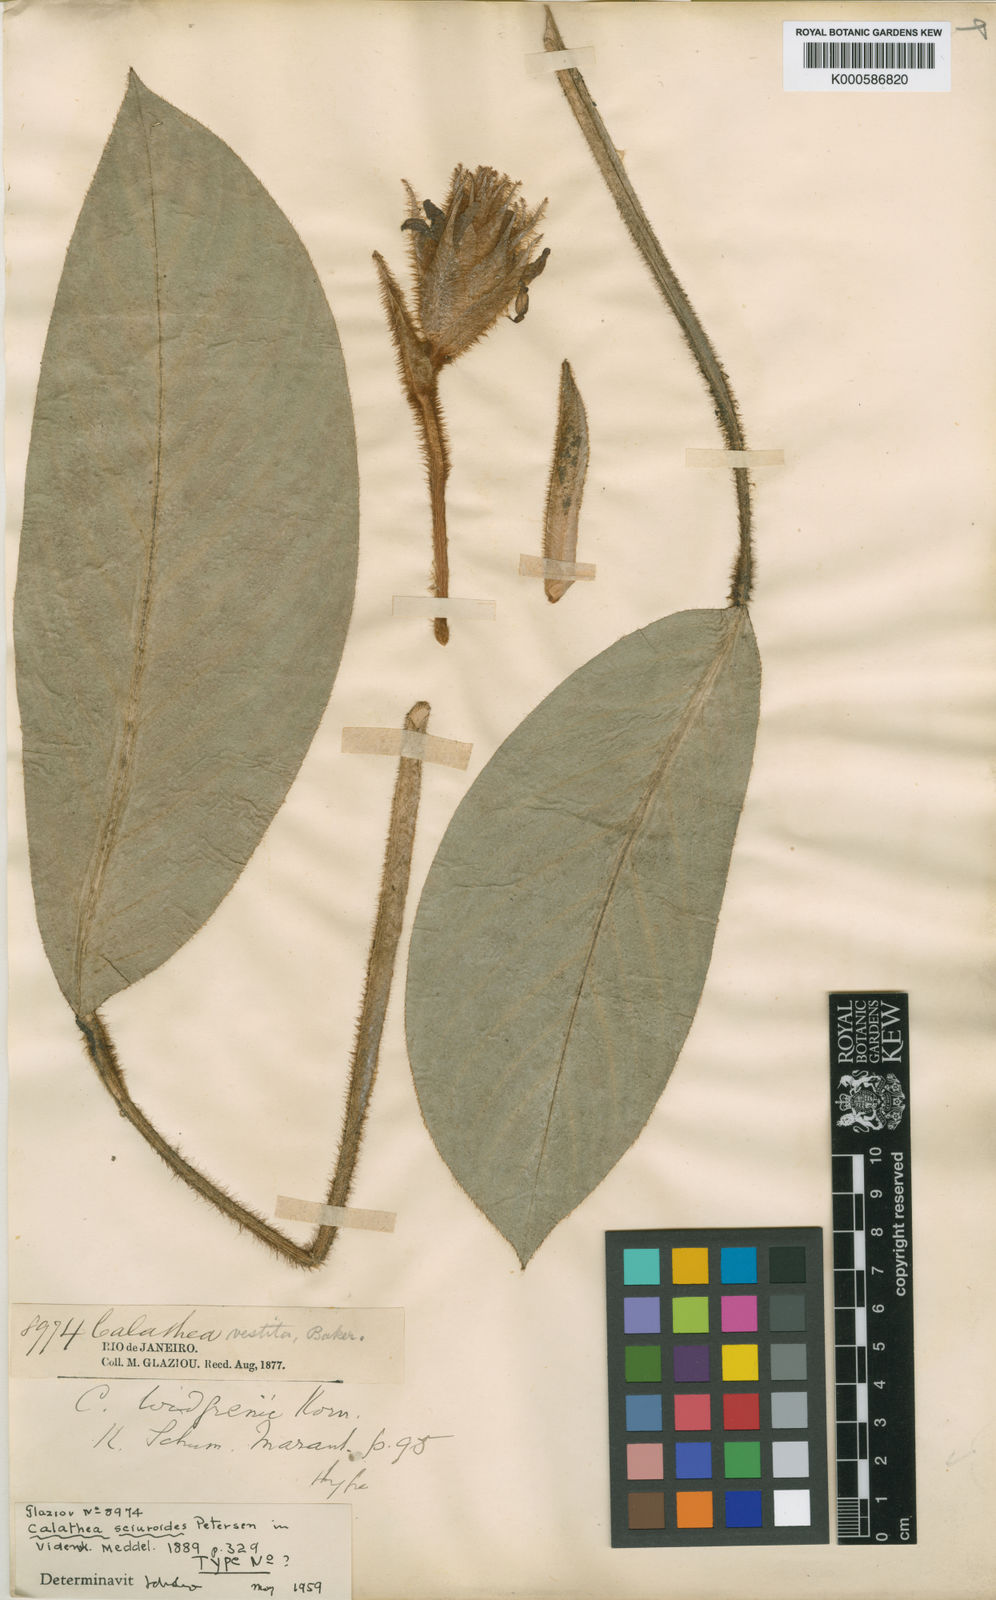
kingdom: Plantae
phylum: Tracheophyta
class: Liliopsida
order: Zingiberales
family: Marantaceae
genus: Goeppertia
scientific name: Goeppertia sciuroides
